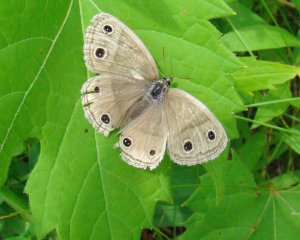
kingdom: Animalia
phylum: Arthropoda
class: Insecta
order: Lepidoptera
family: Nymphalidae
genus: Euptychia
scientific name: Euptychia cymela
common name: Little Wood Satyr
